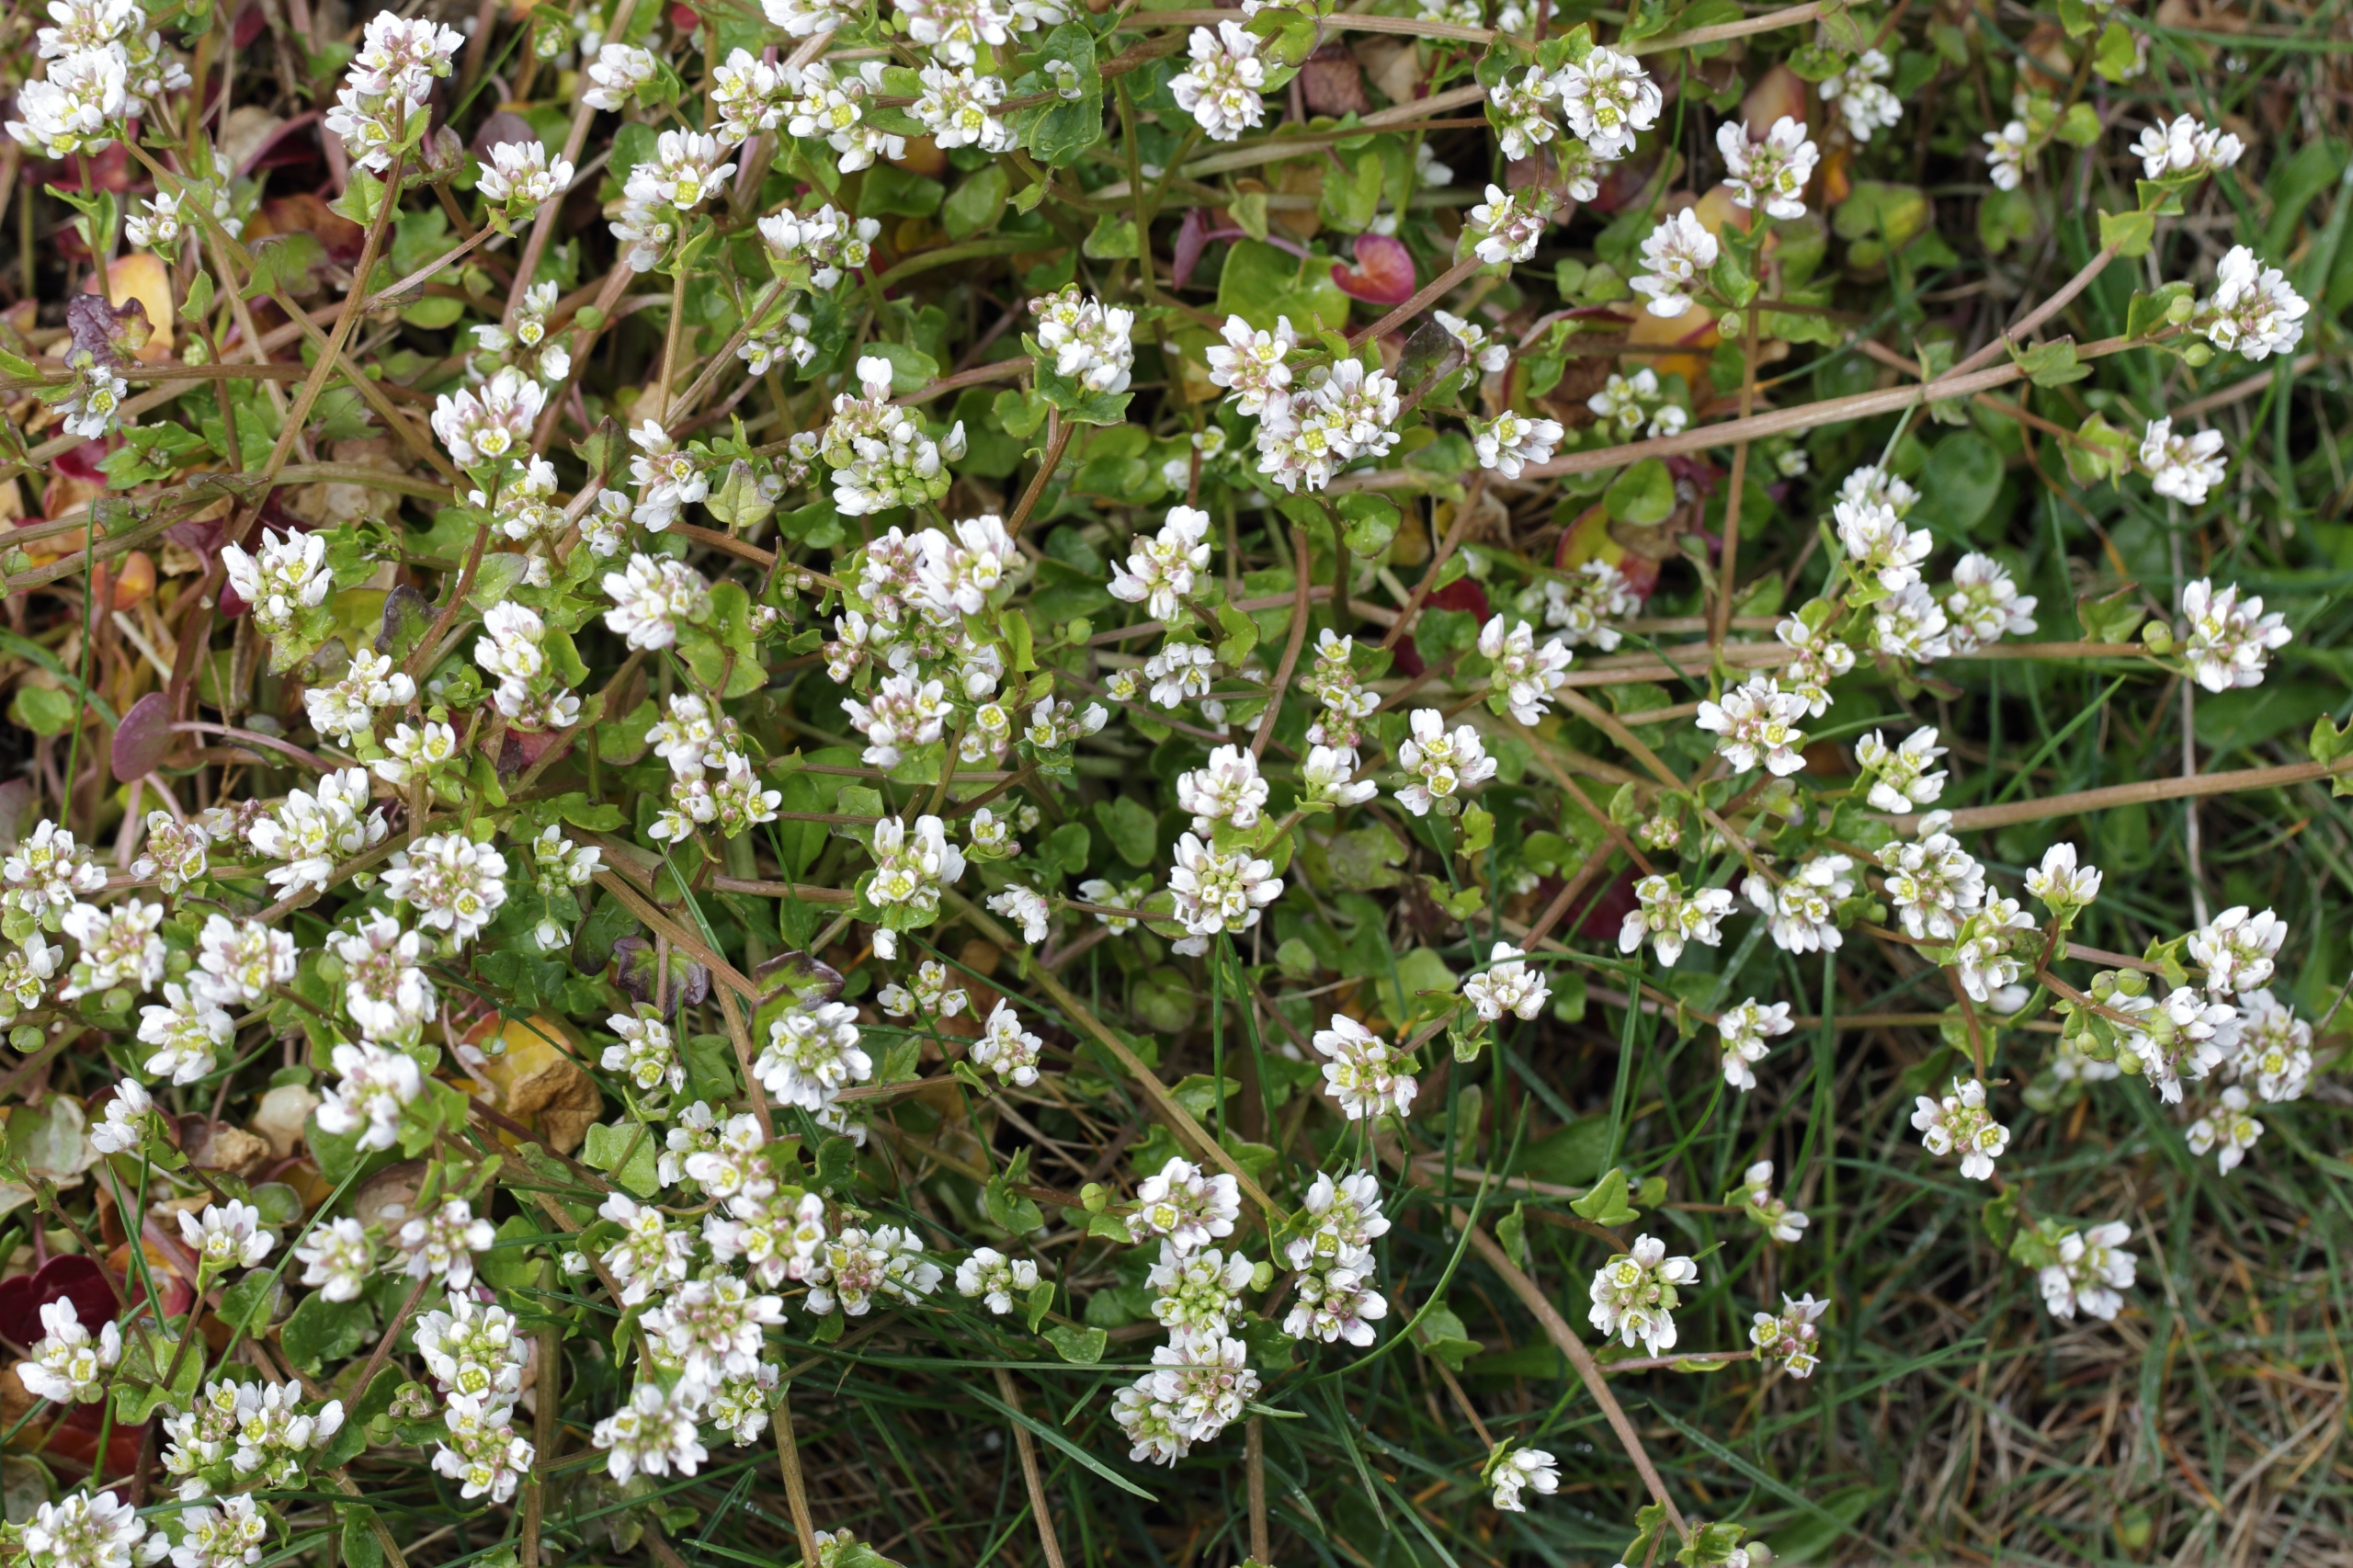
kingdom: Plantae
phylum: Tracheophyta
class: Magnoliopsida
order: Brassicales
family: Brassicaceae
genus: Cochlearia
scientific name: Cochlearia danica
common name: Dansk kokleare
